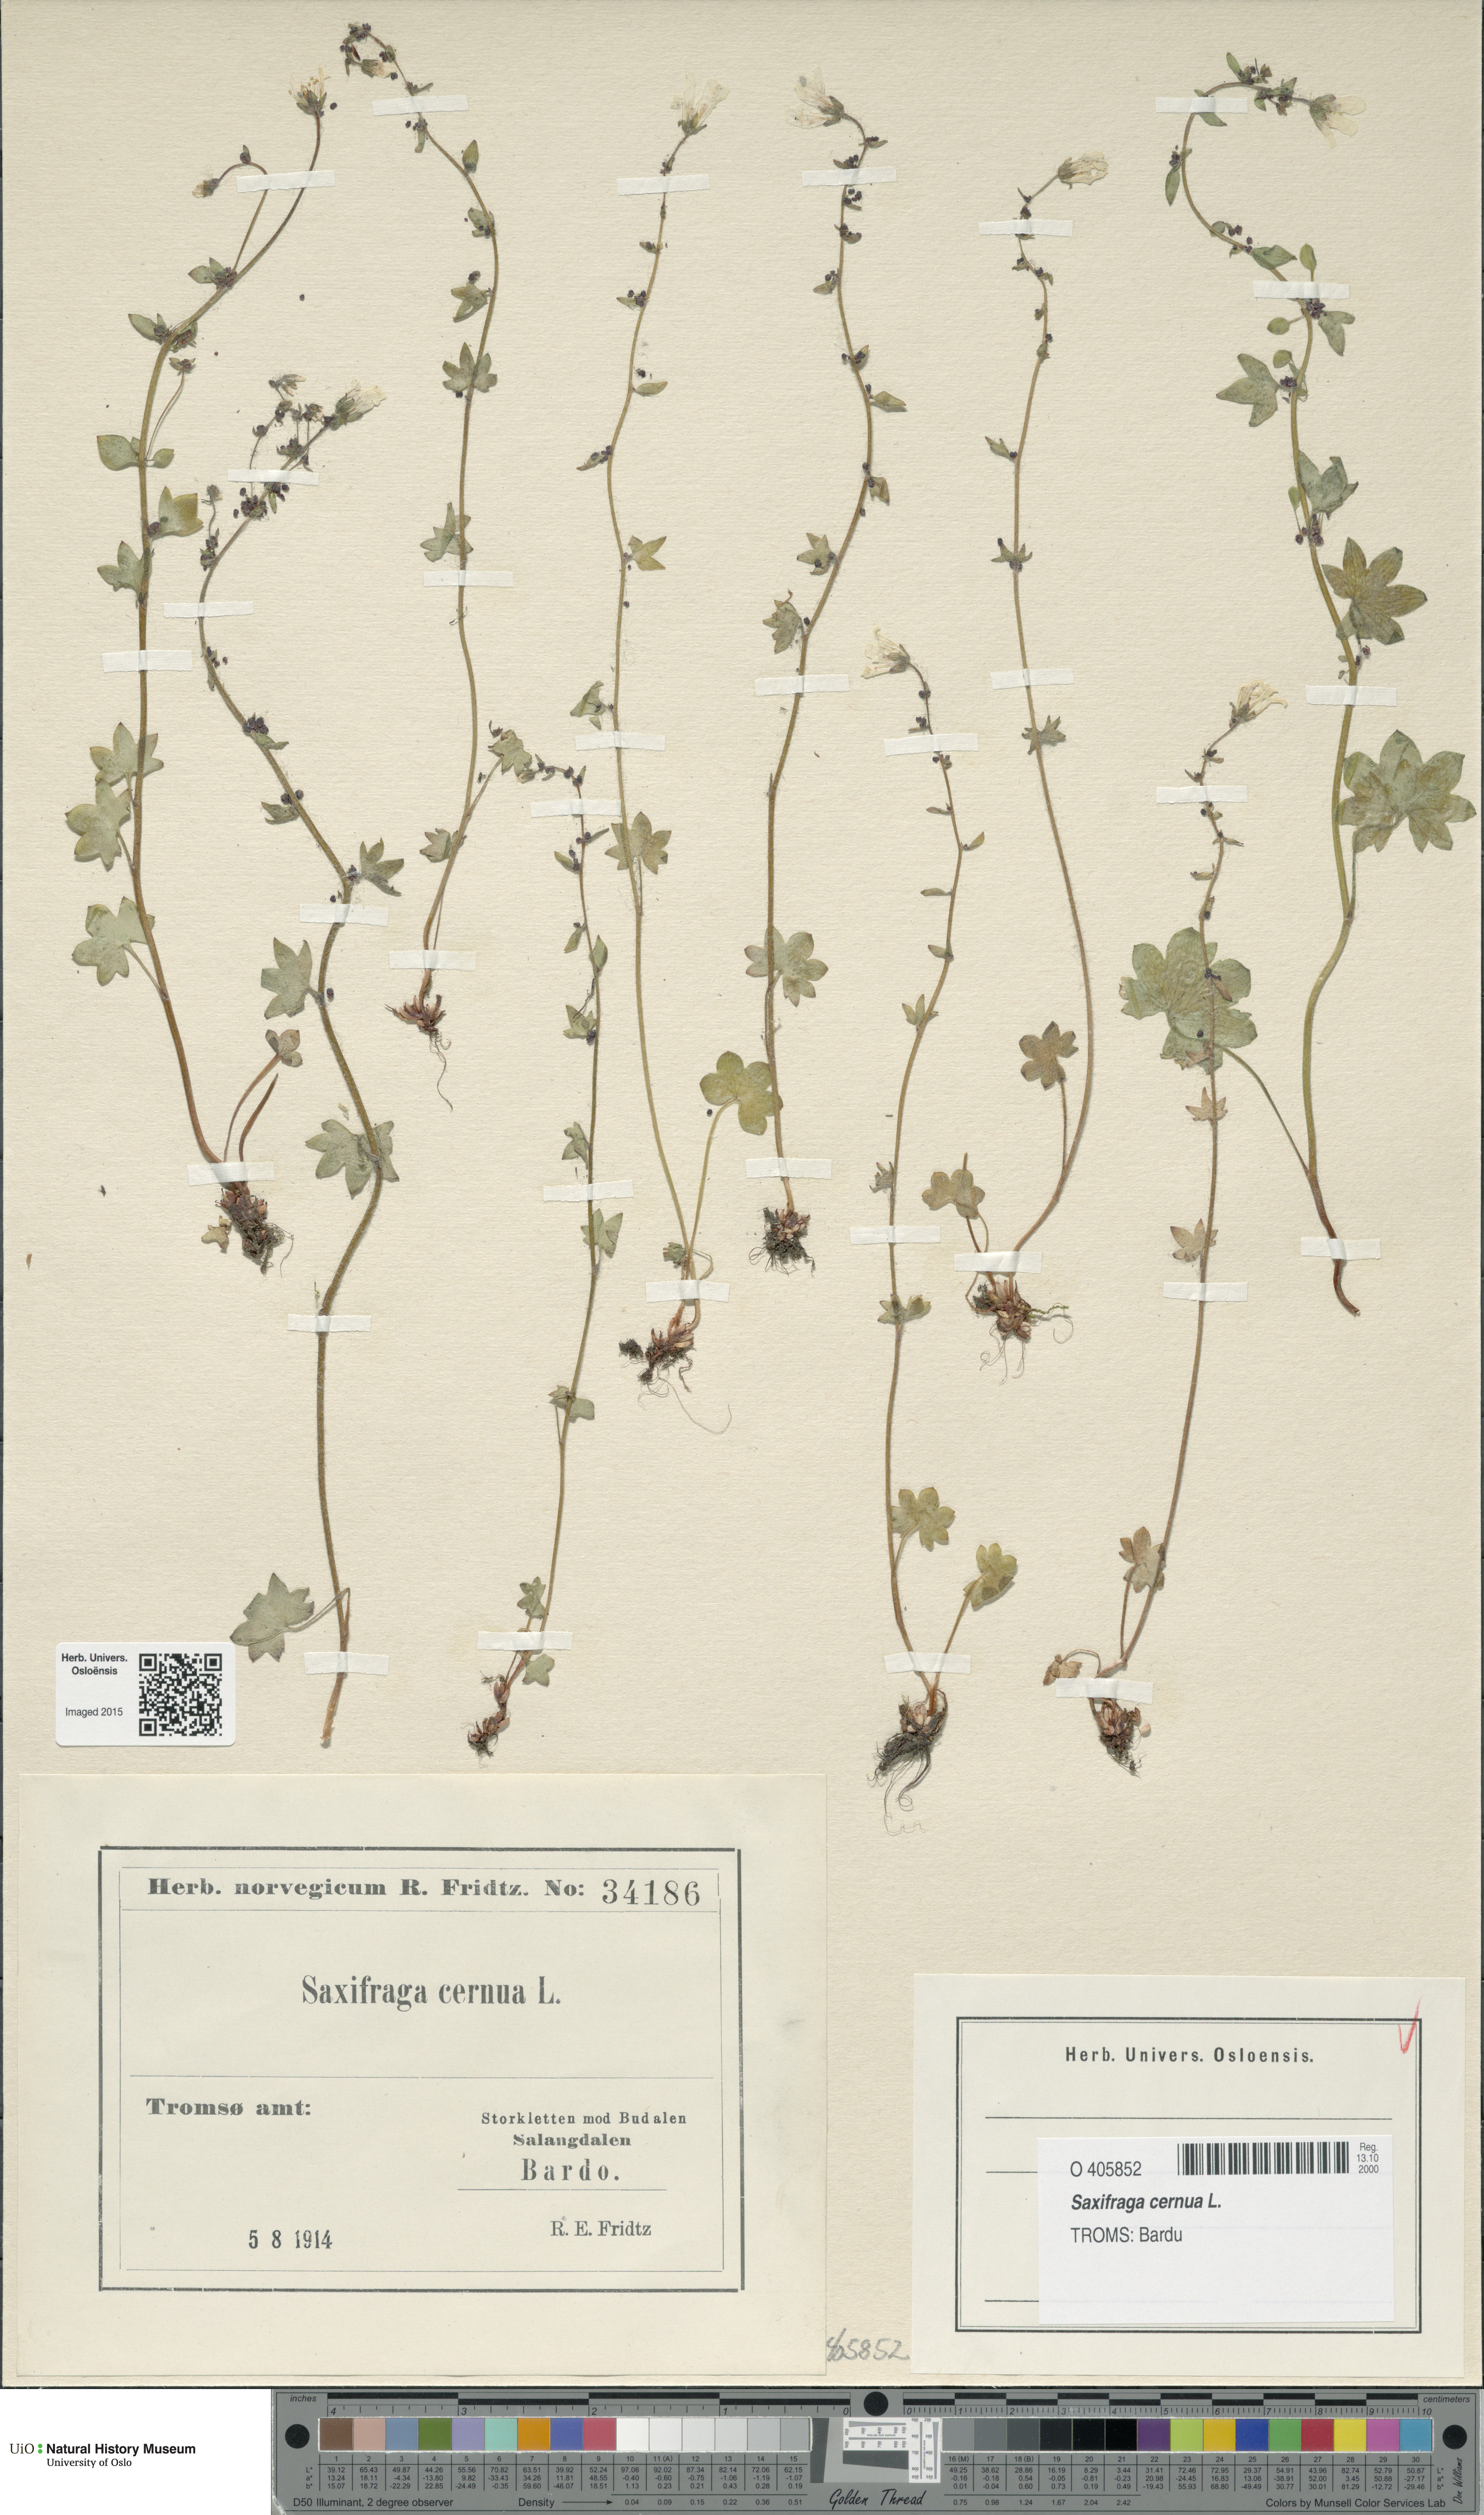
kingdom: Plantae
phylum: Tracheophyta
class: Magnoliopsida
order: Saxifragales
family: Saxifragaceae
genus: Saxifraga
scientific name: Saxifraga cernua
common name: Drooping saxifrage
